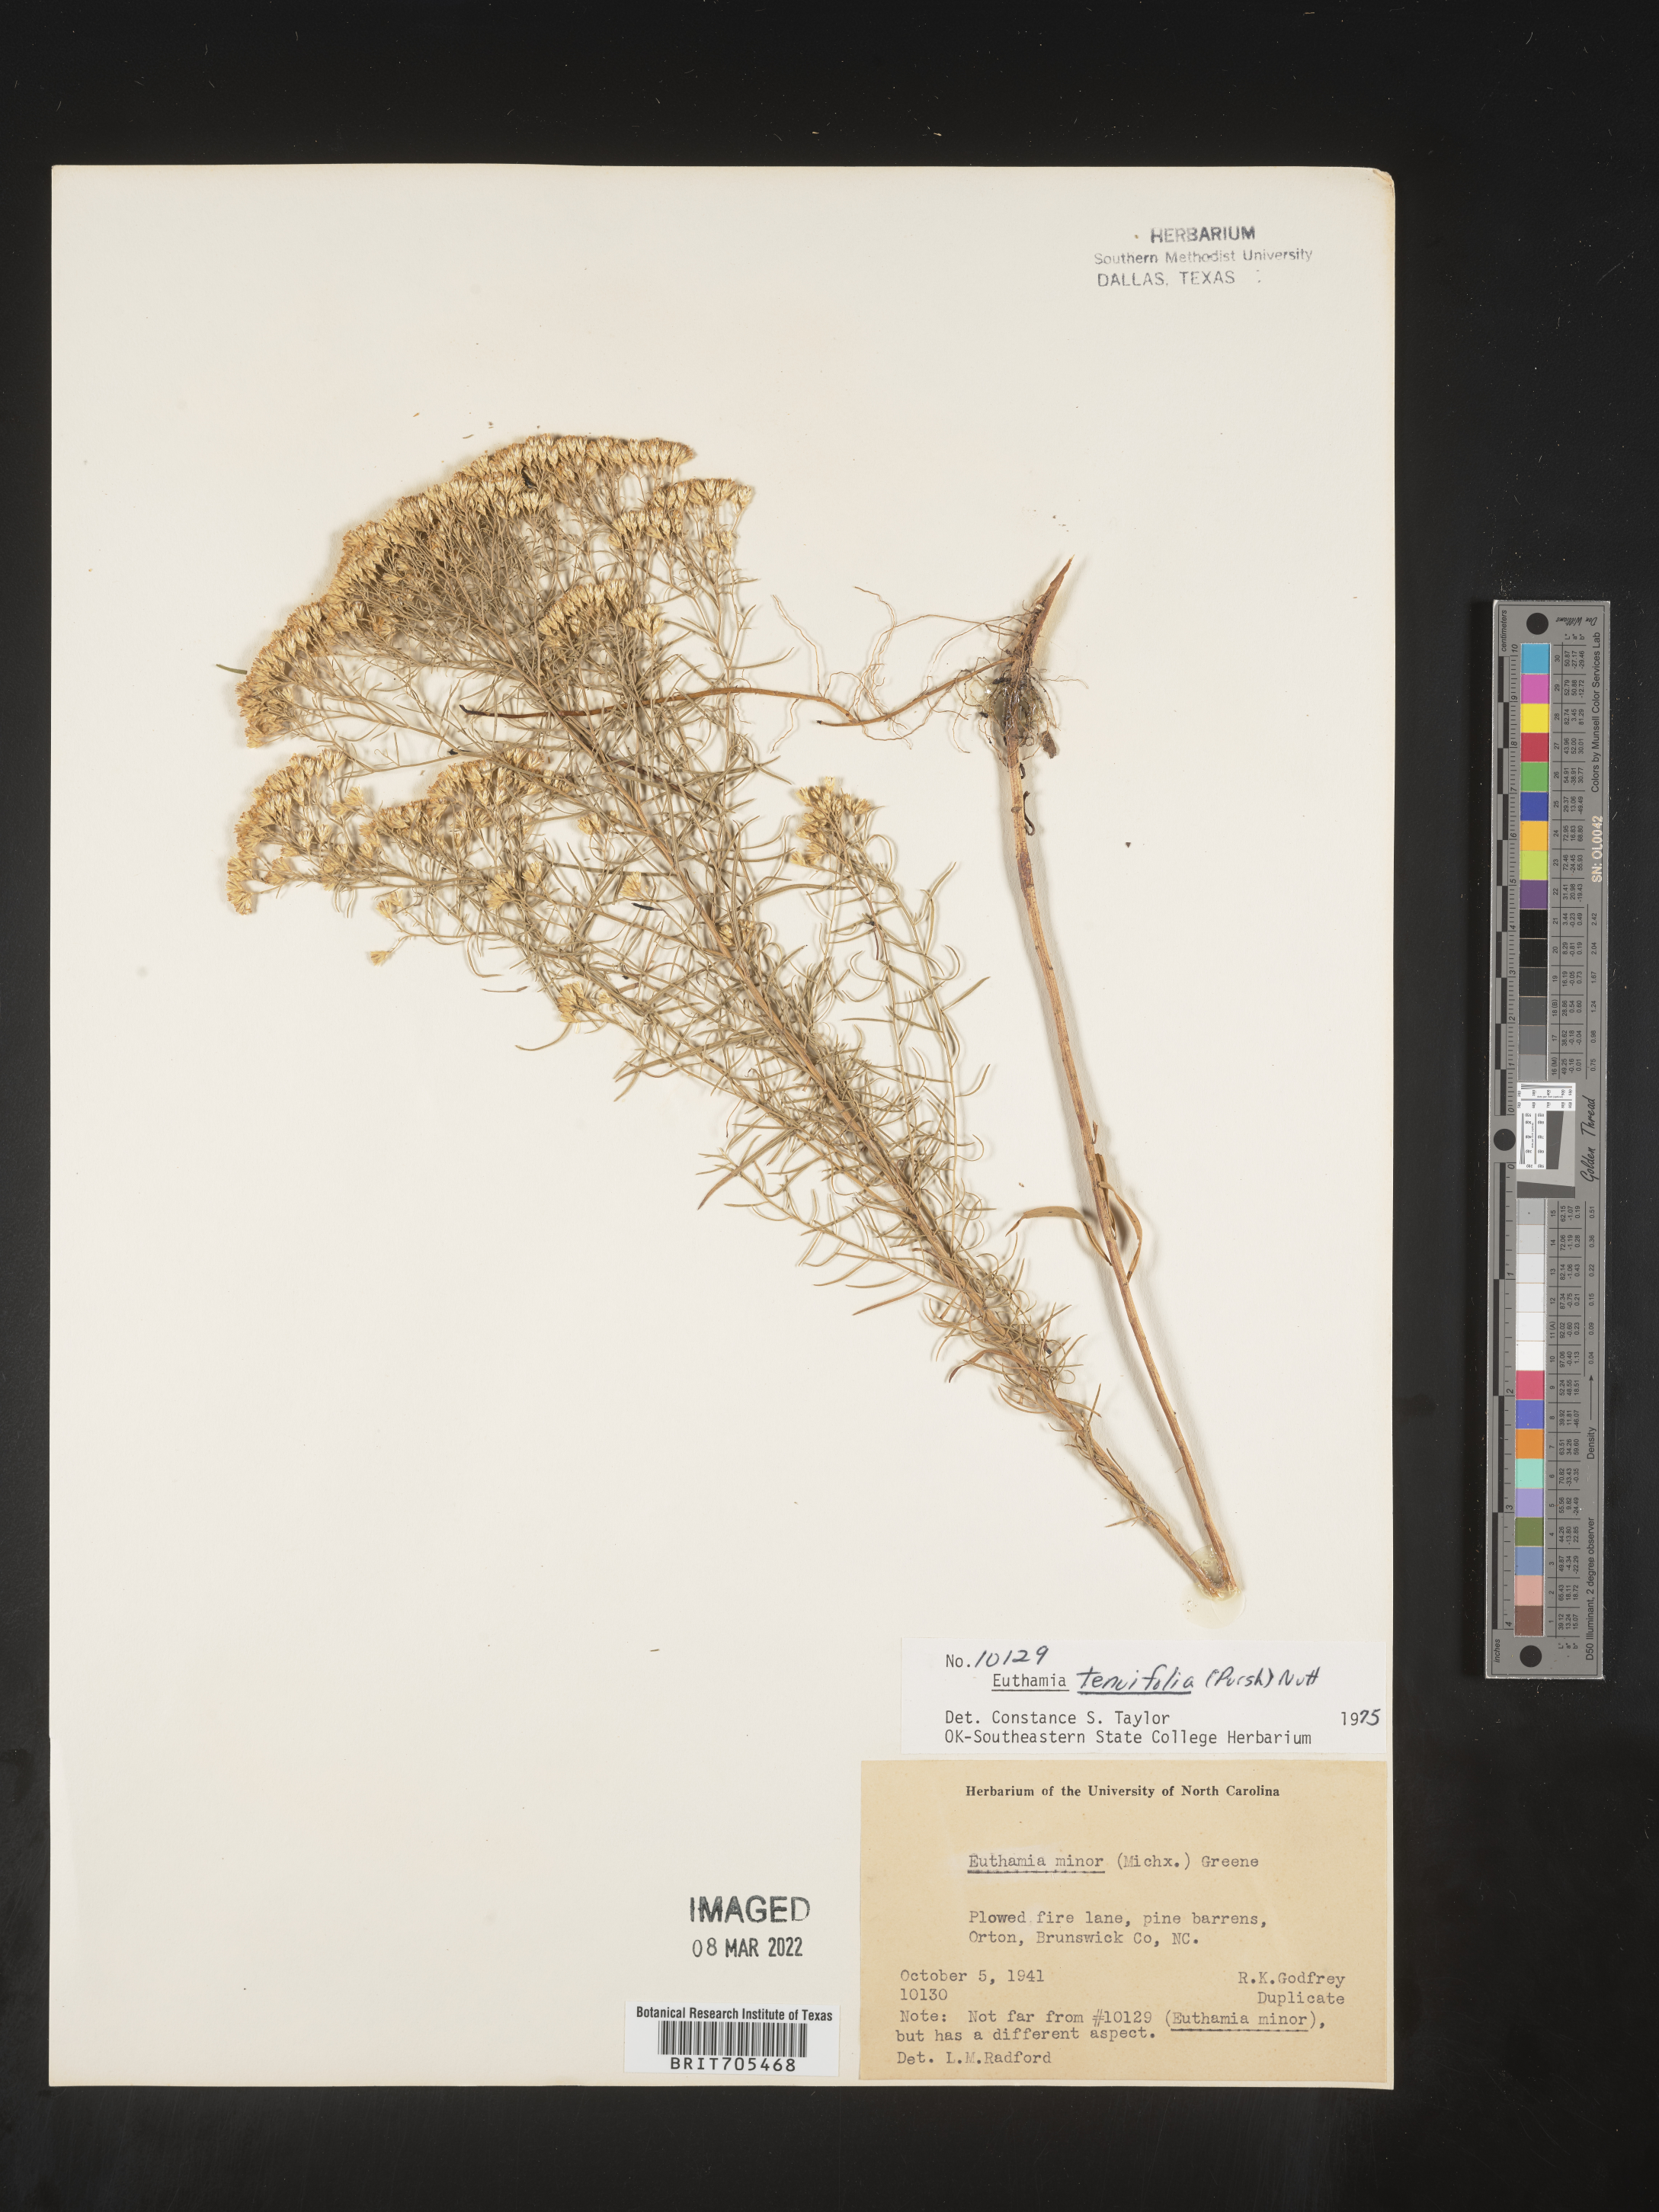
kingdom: Plantae
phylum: Tracheophyta
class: Magnoliopsida
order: Asterales
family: Asteraceae
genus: Euthamia
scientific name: Euthamia caroliniana
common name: Coastal plain goldentop
